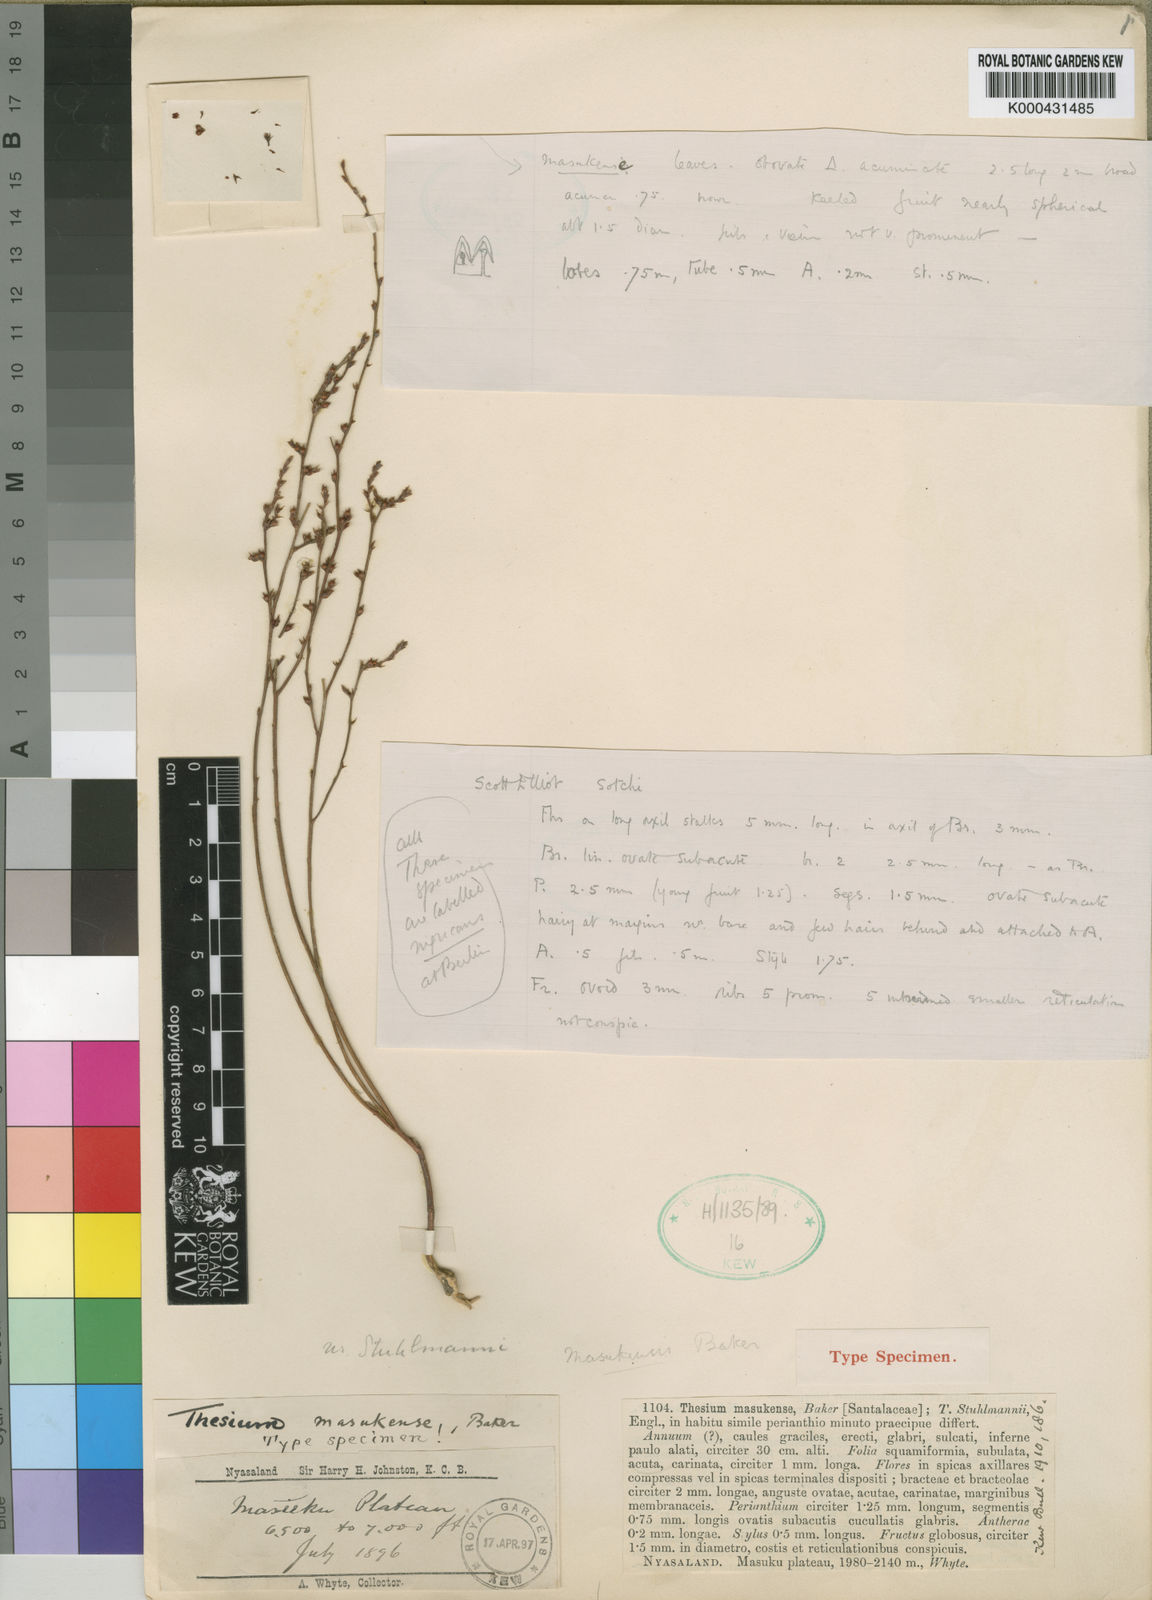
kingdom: Plantae
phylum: Tracheophyta
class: Magnoliopsida
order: Santalales
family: Thesiaceae
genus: Thesium
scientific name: Thesium masukense
